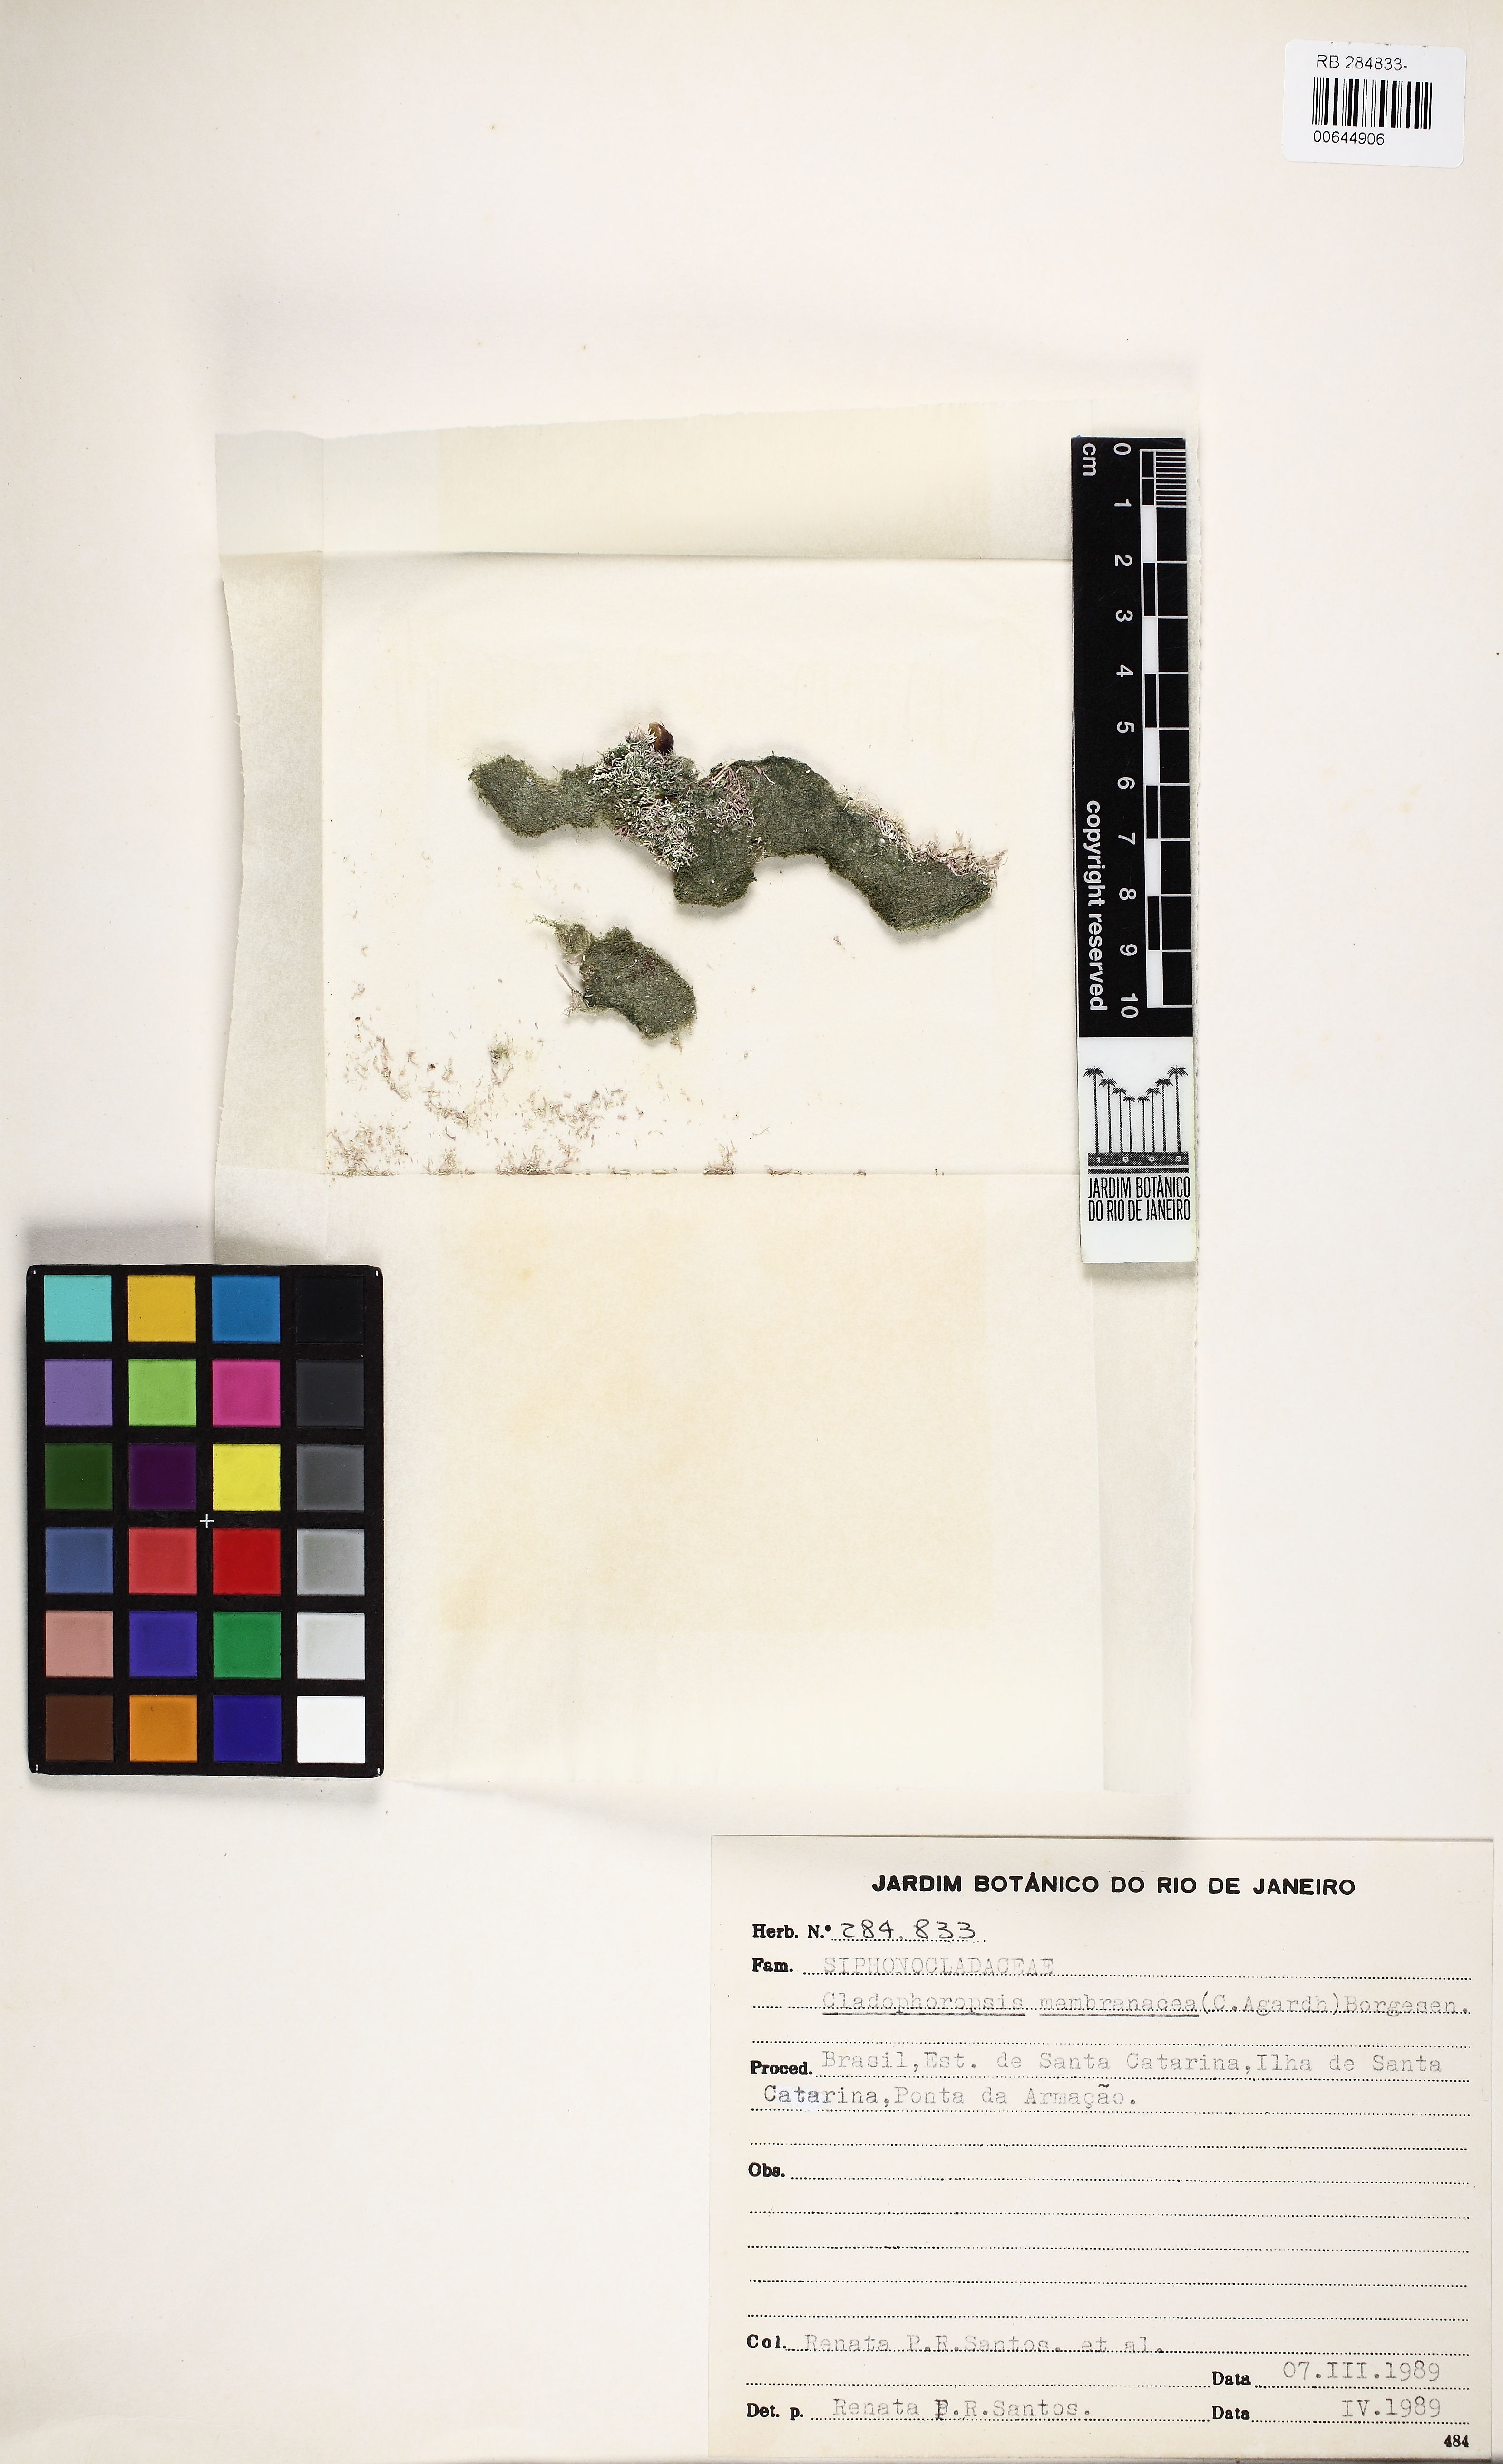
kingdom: Plantae
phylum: Chlorophyta
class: Ulvophyceae
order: Siphonocladales
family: Boodleaceae
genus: Cladophoropsis
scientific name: Cladophoropsis membranacea
